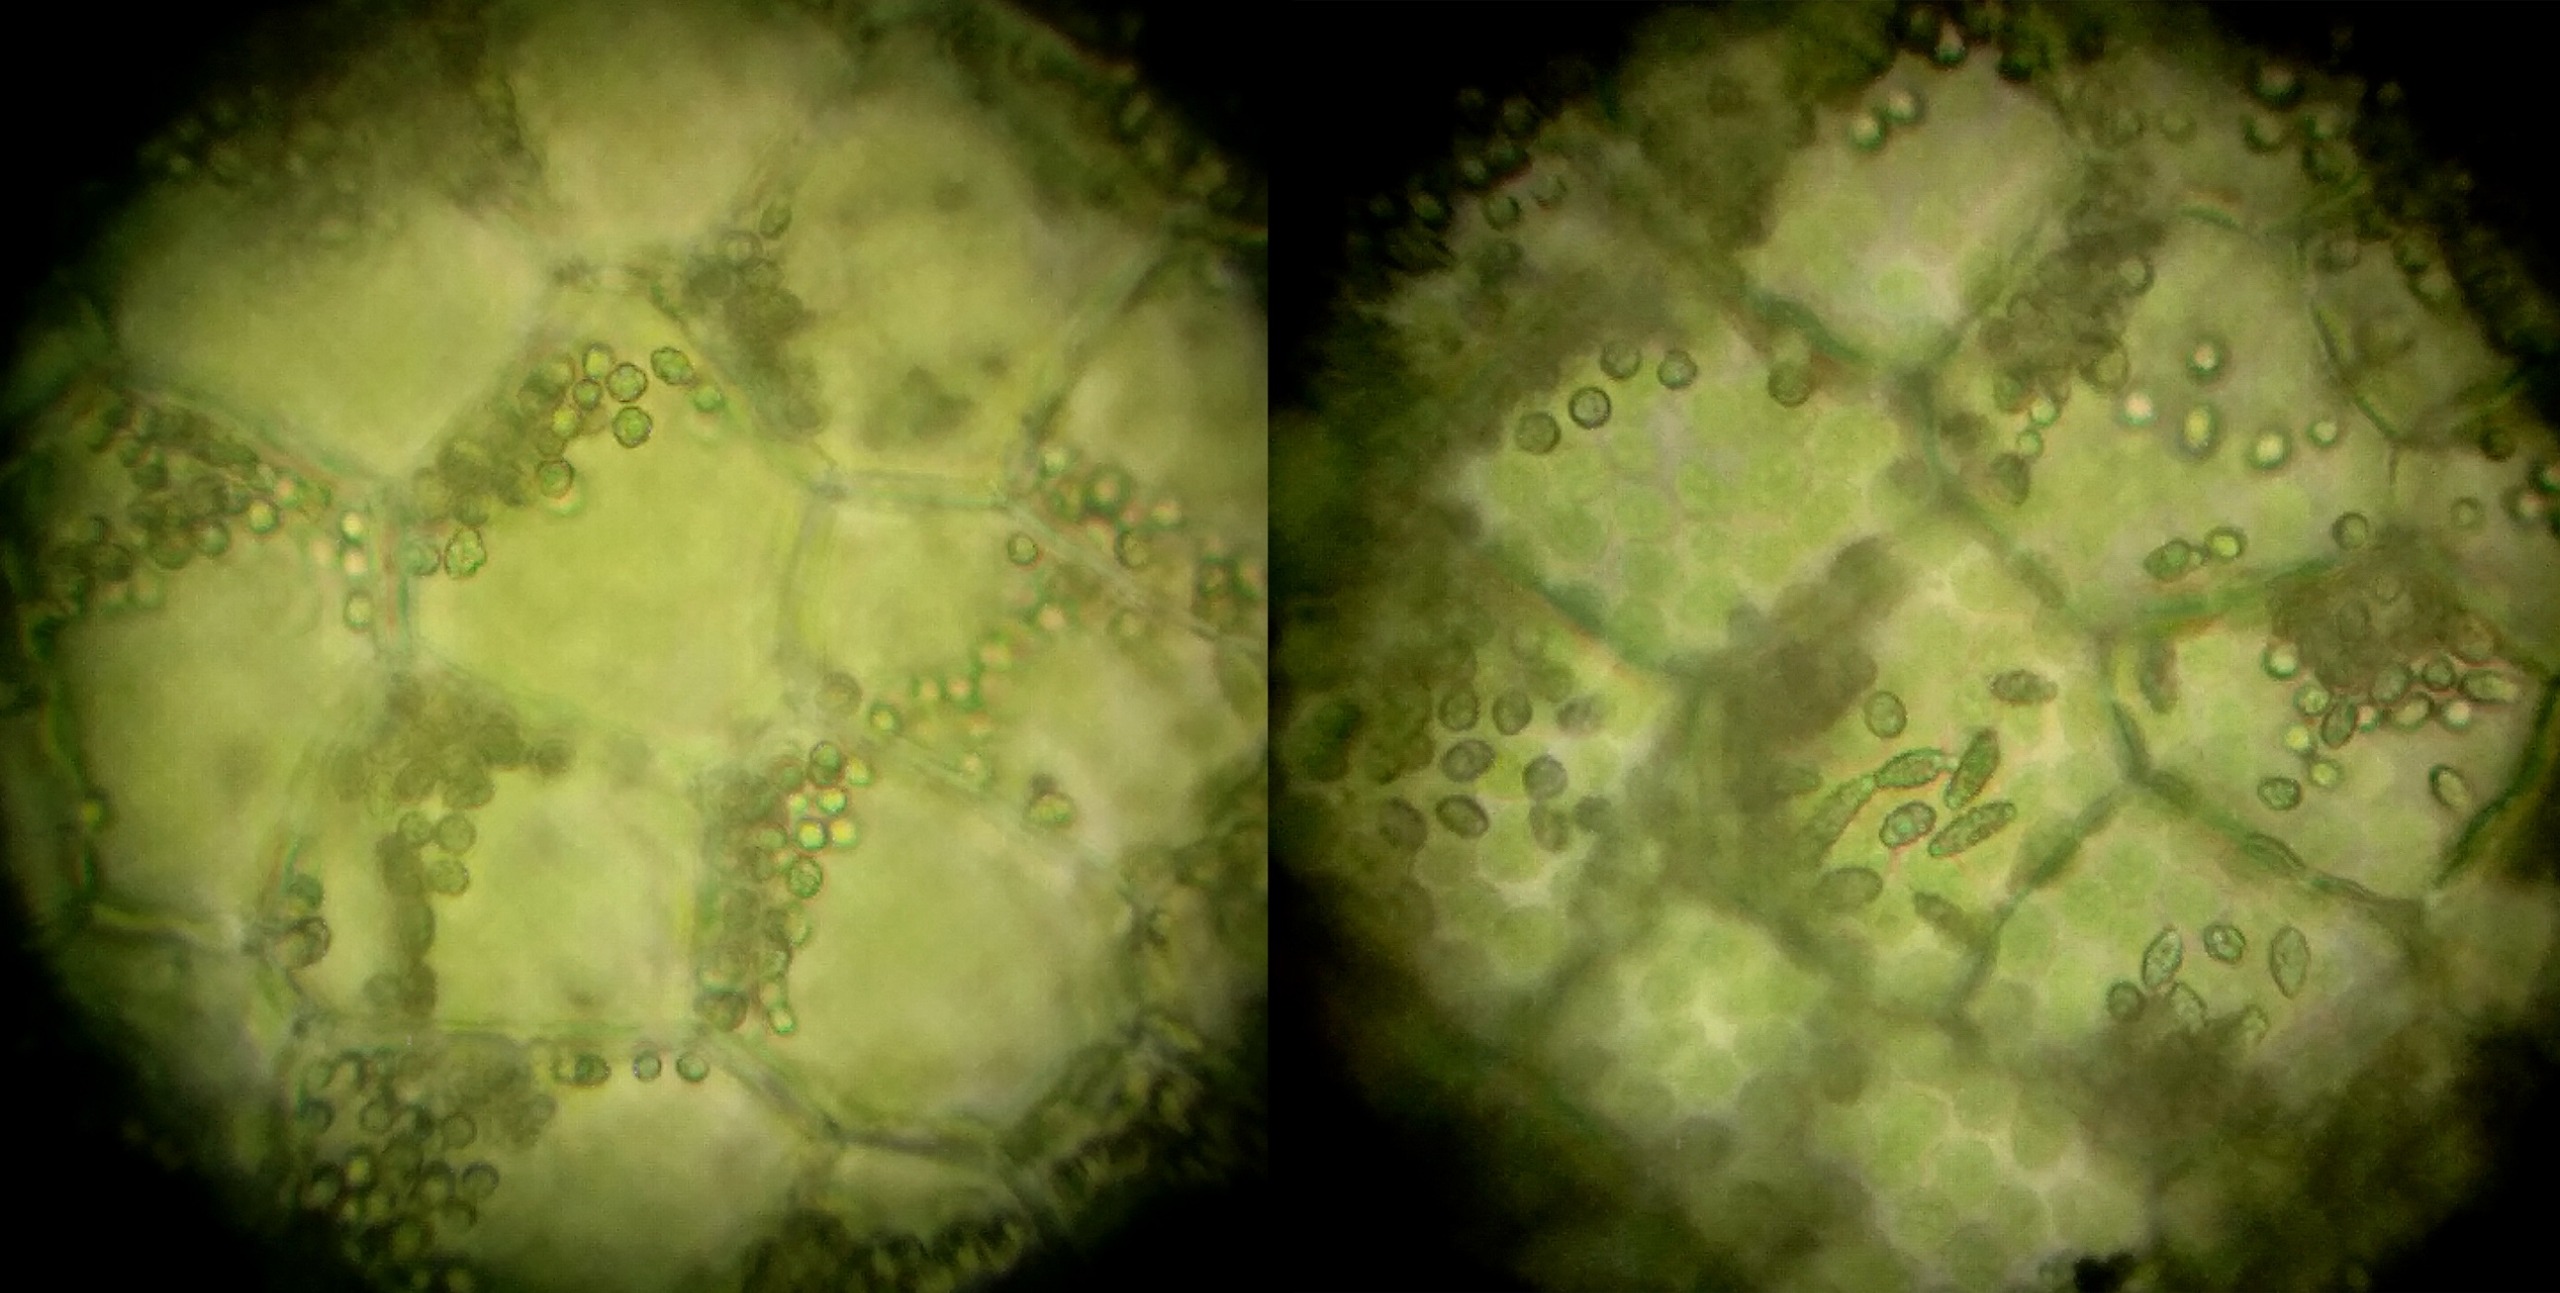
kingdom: Plantae
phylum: Marchantiophyta
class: Jungermanniopsida
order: Pallaviciniales
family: Pallaviciniaceae
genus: Pallavicinia
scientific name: Pallavicinia lyellii
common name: Almindelig strengløv
